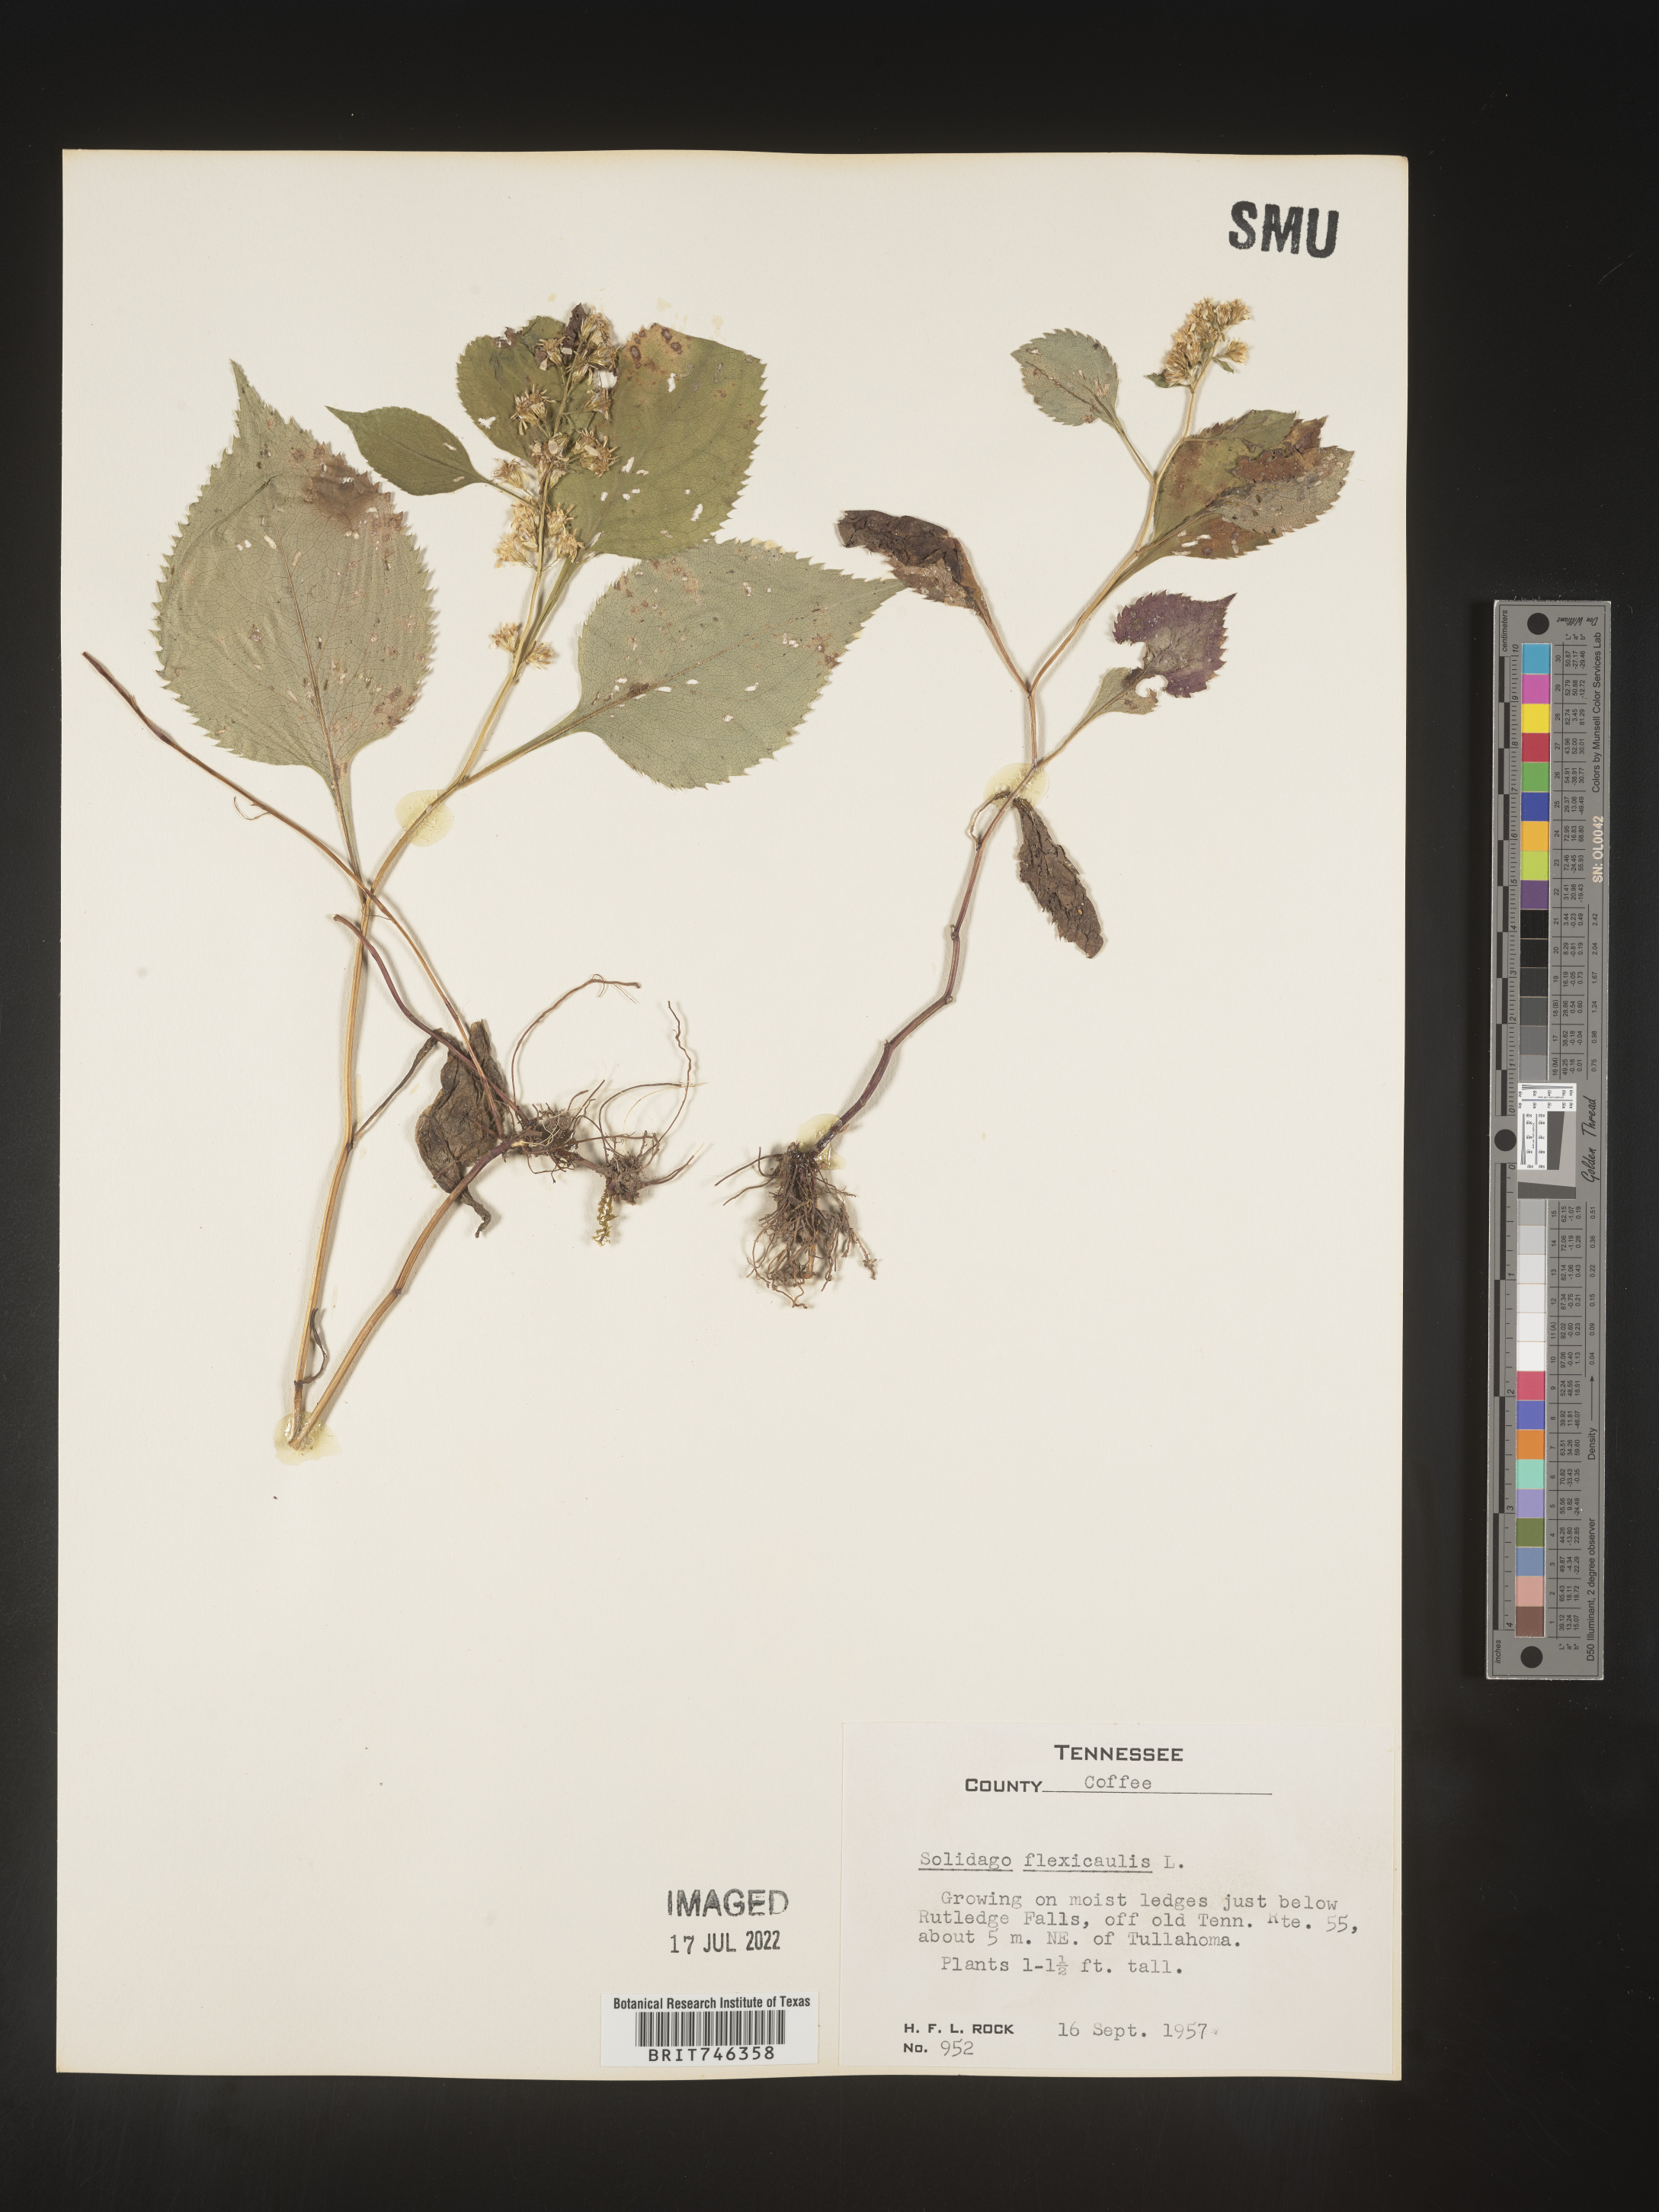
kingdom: Plantae
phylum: Tracheophyta
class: Magnoliopsida
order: Asterales
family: Asteraceae
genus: Solidago
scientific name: Solidago flexicaulis
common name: Zig-zag goldenrod
